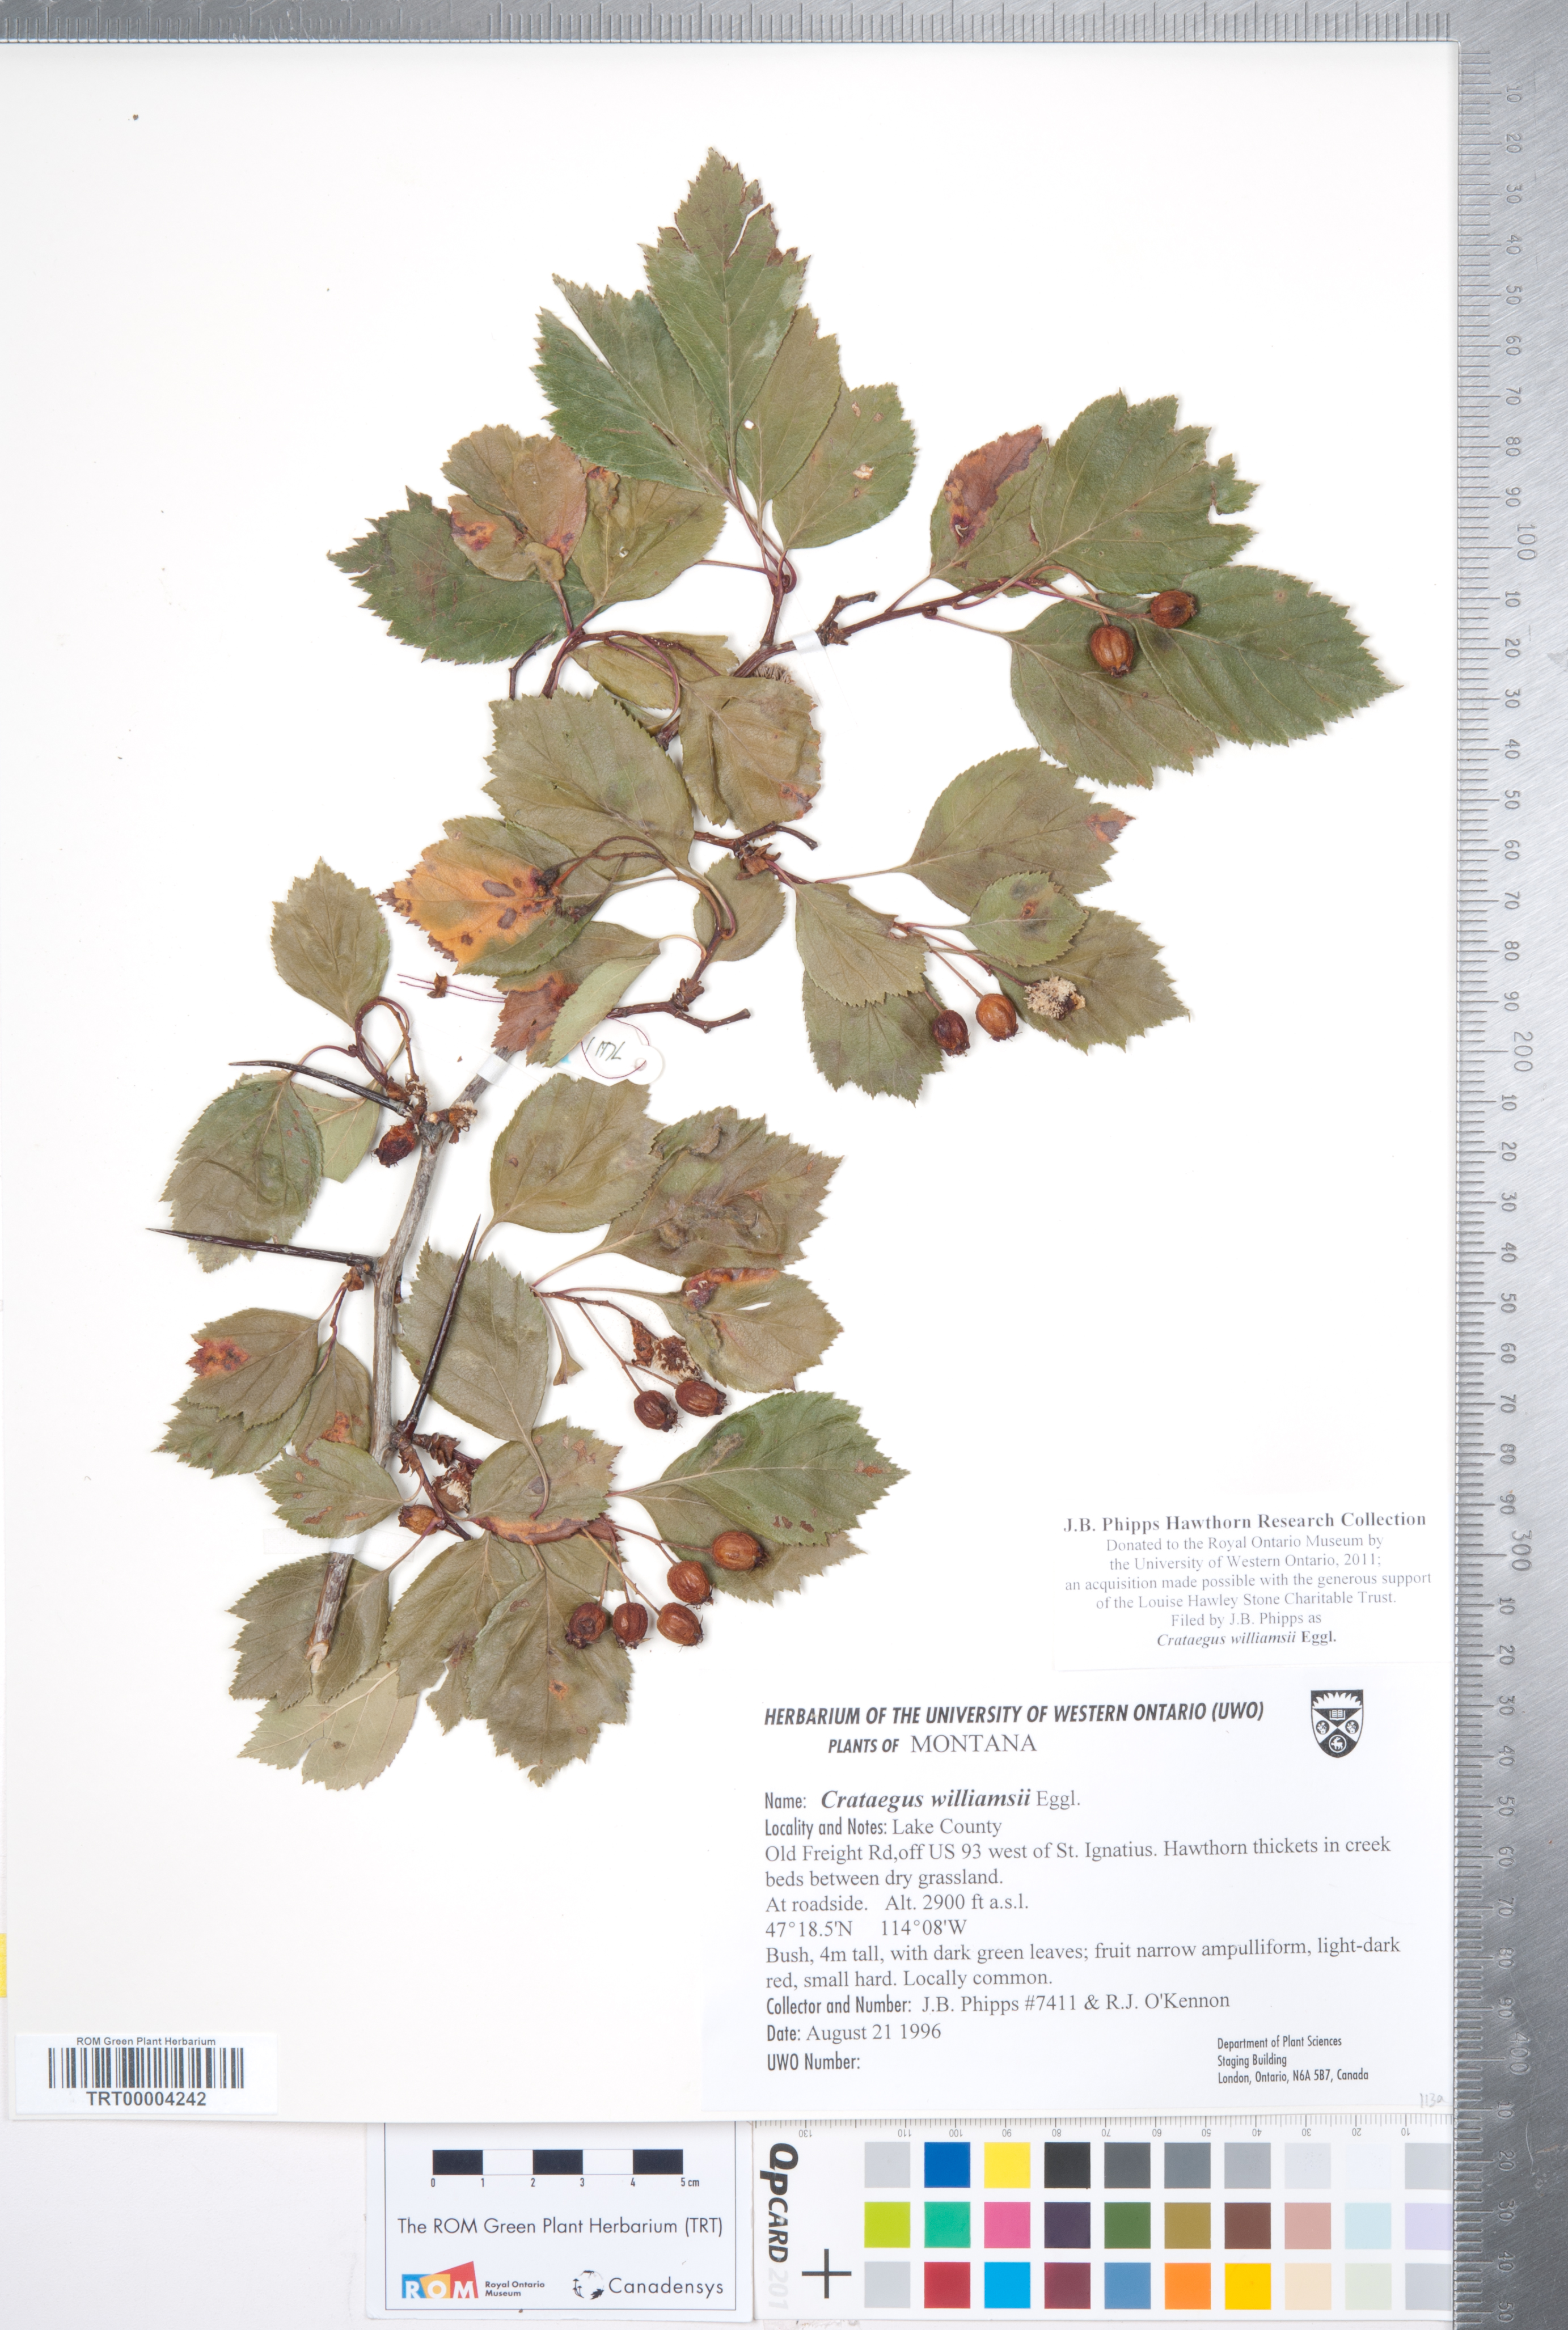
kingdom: Plantae
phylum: Tracheophyta
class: Magnoliopsida
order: Rosales
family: Rosaceae
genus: Crataegus
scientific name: Crataegus williamsii
